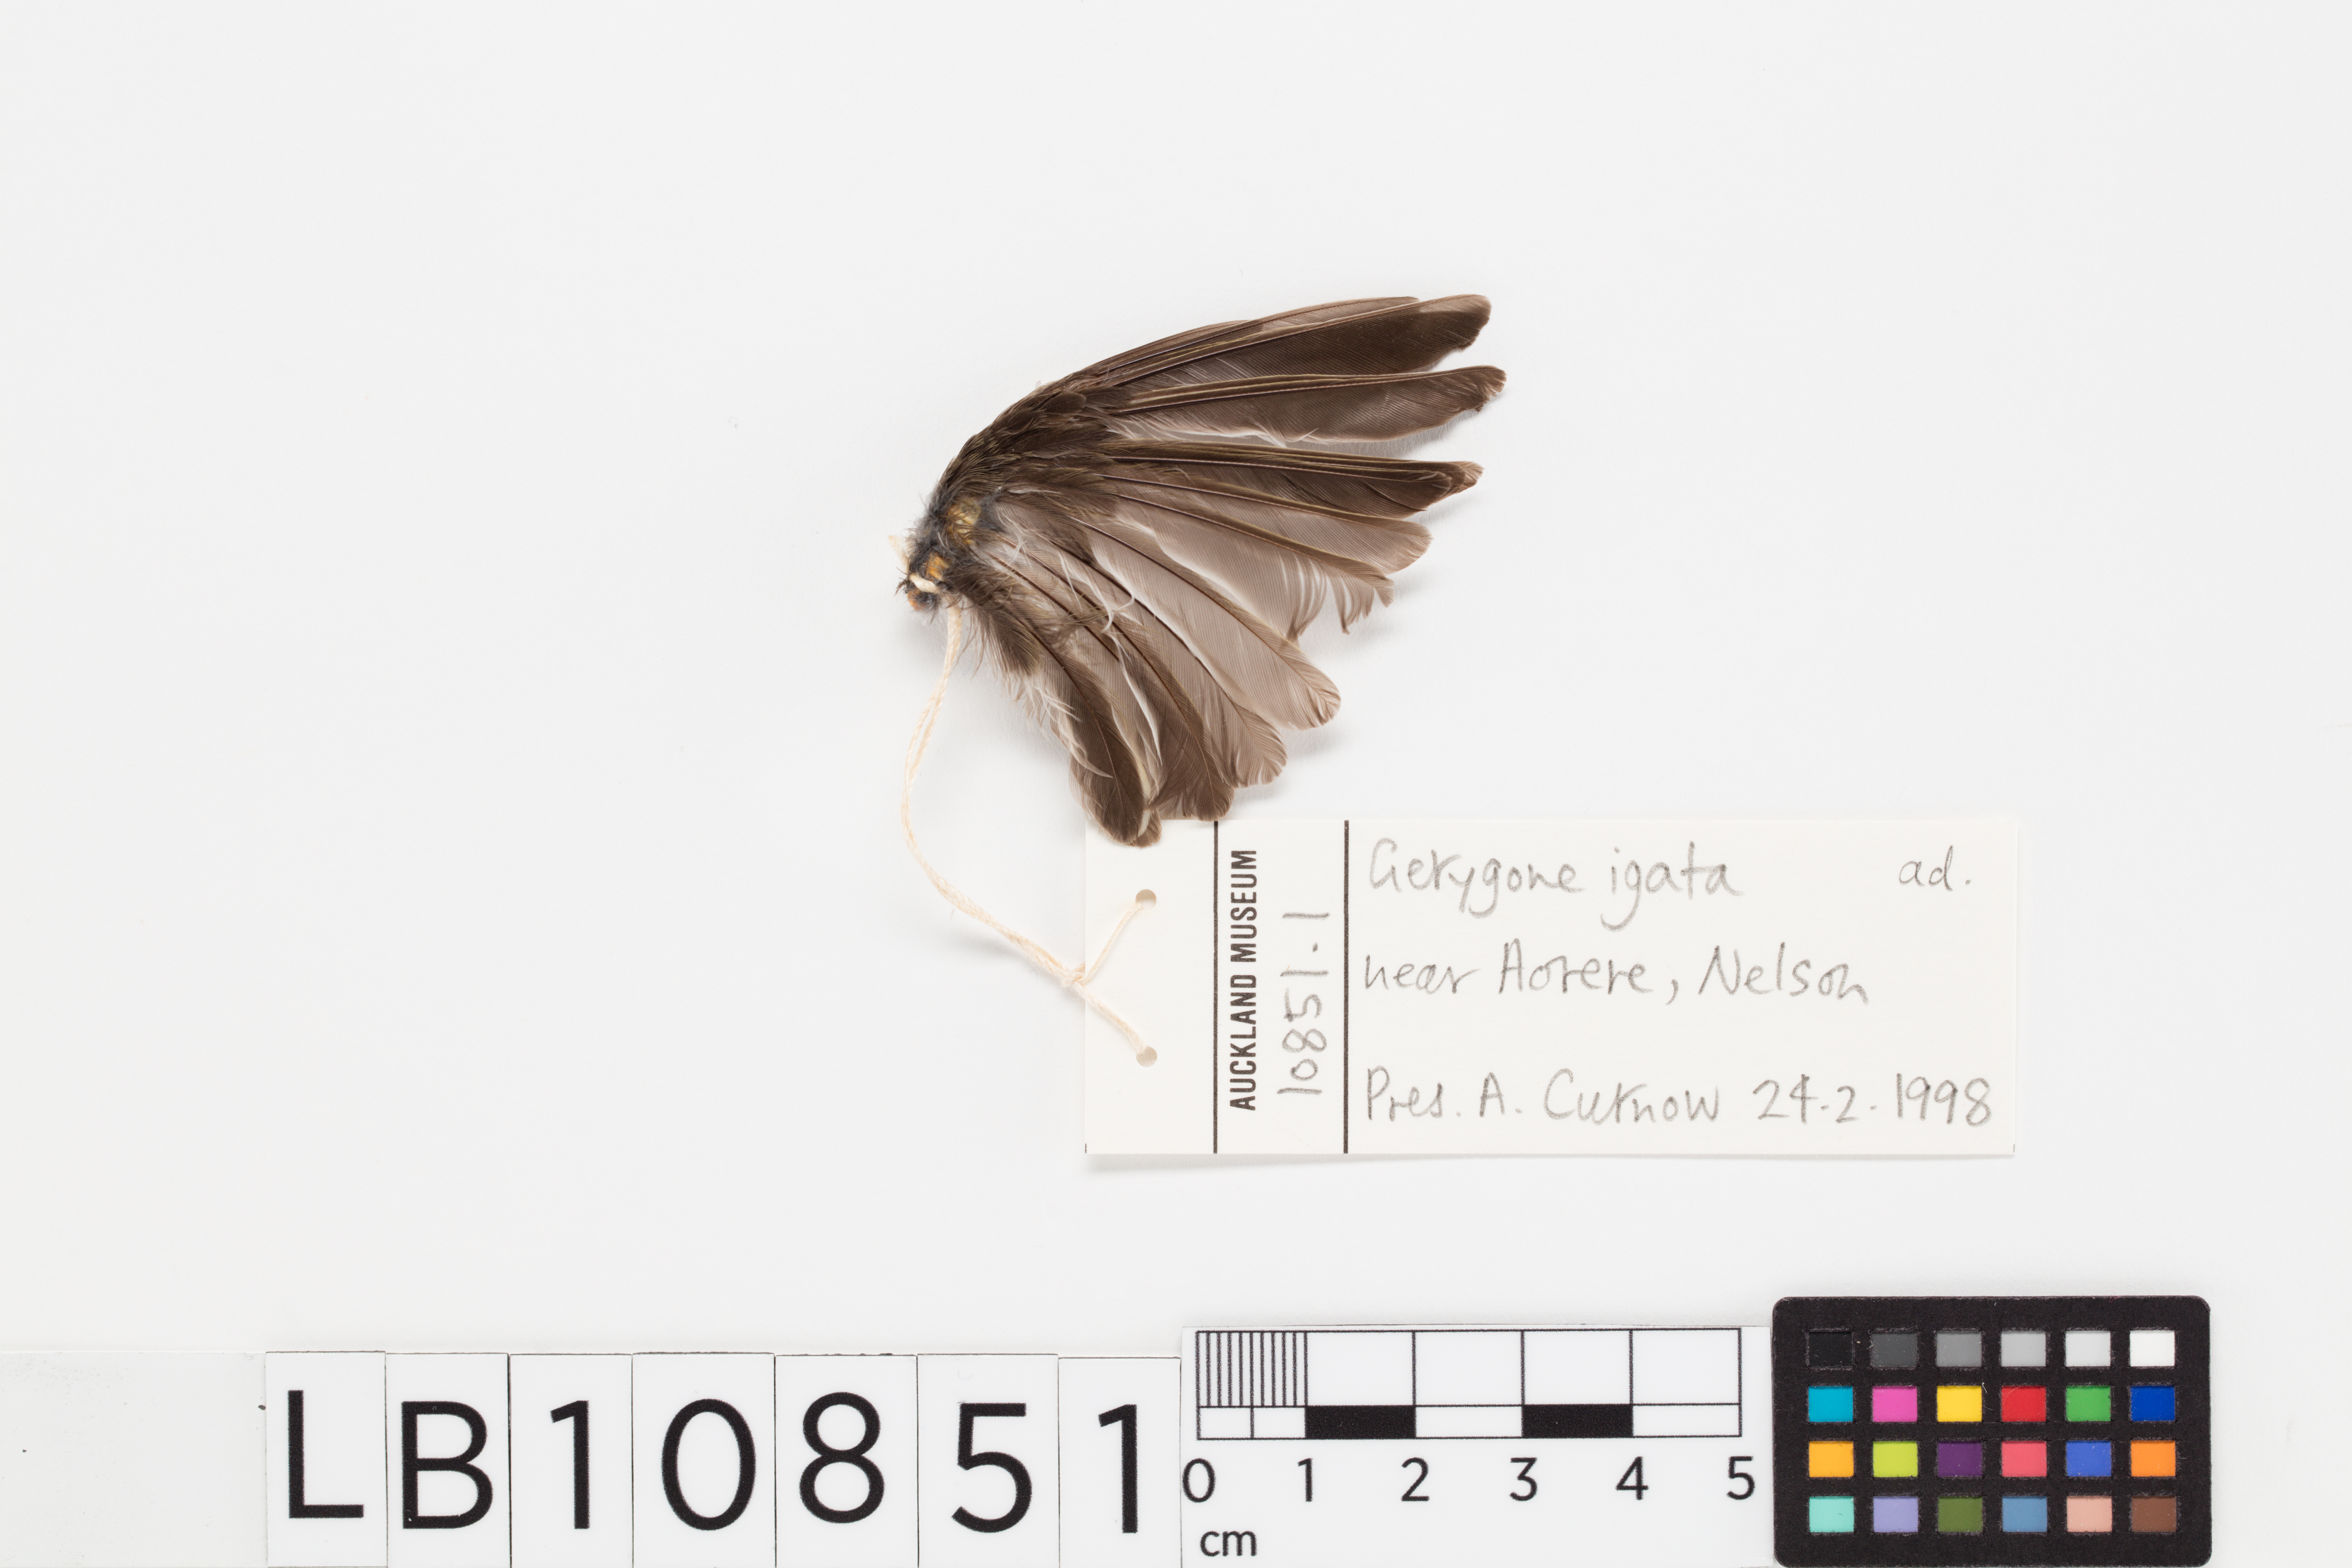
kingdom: Animalia
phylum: Chordata
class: Aves
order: Passeriformes
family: Acanthizidae
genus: Gerygone
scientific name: Gerygone igata
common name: Grey gerygone
